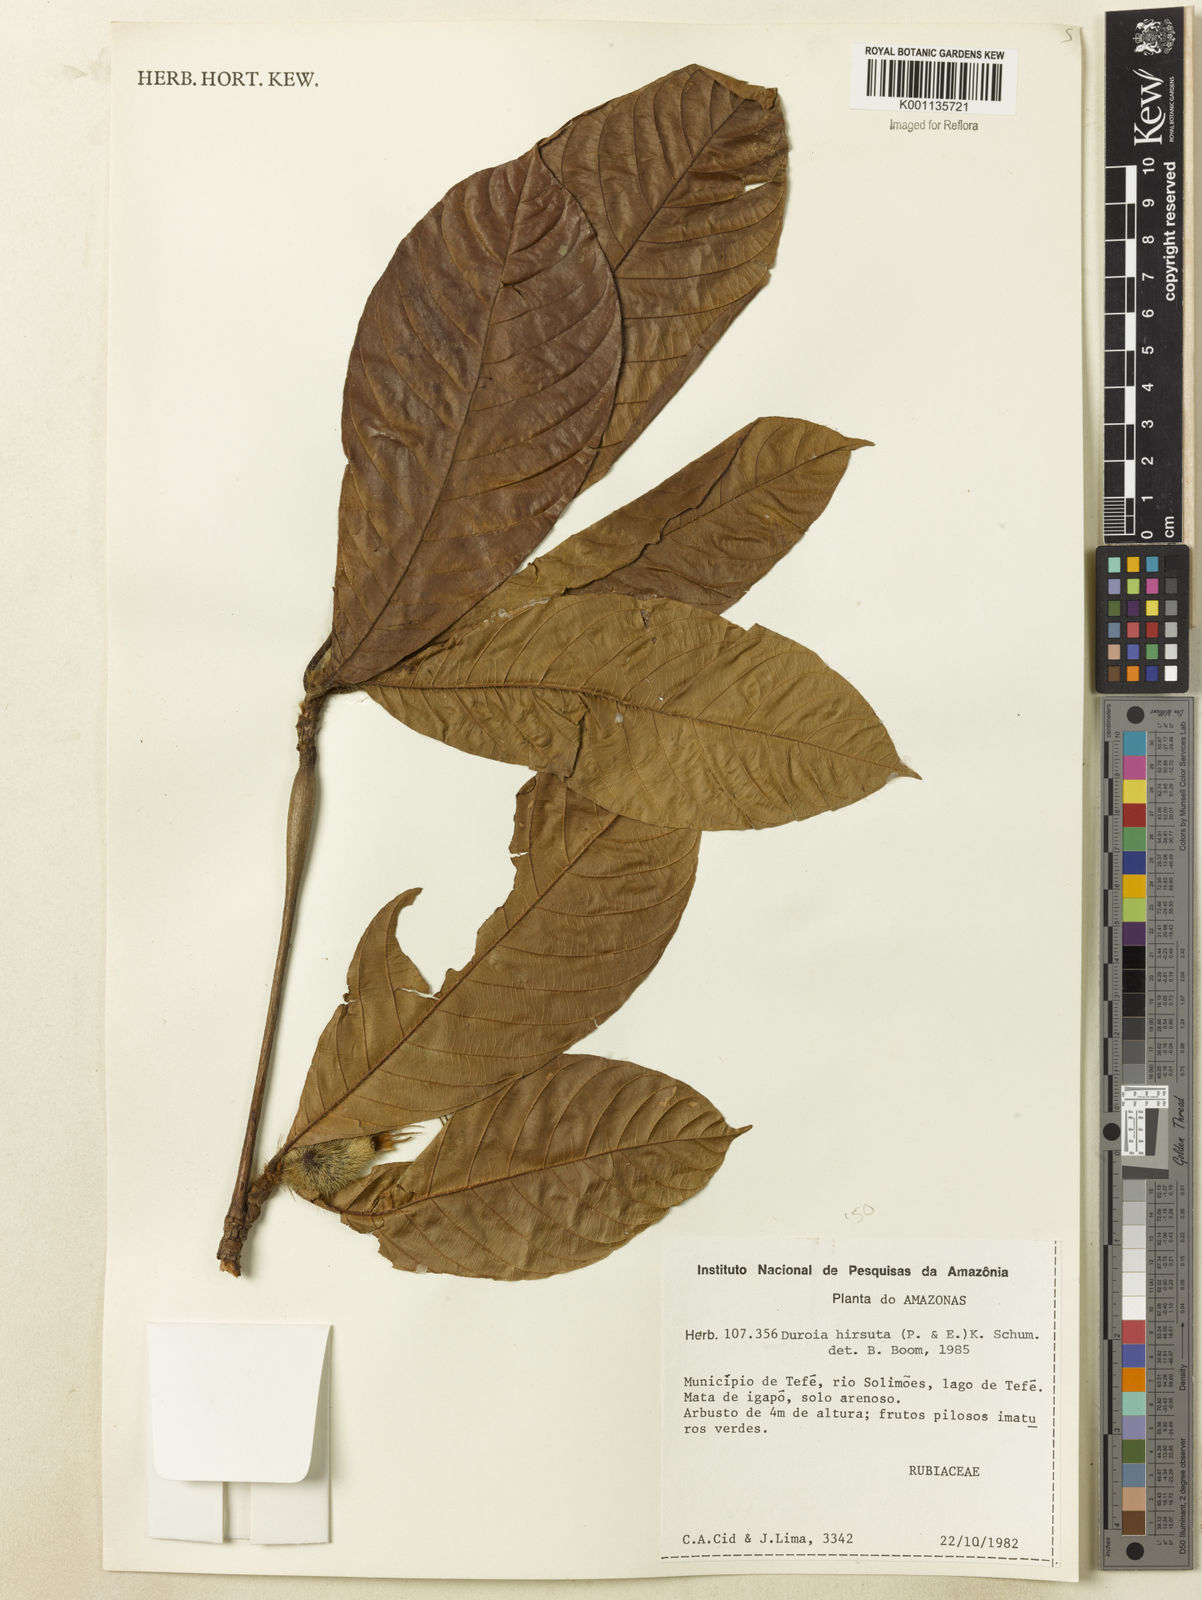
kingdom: Plantae
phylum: Tracheophyta
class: Magnoliopsida
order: Gentianales
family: Rubiaceae
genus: Duroia
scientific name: Duroia hirsuta
